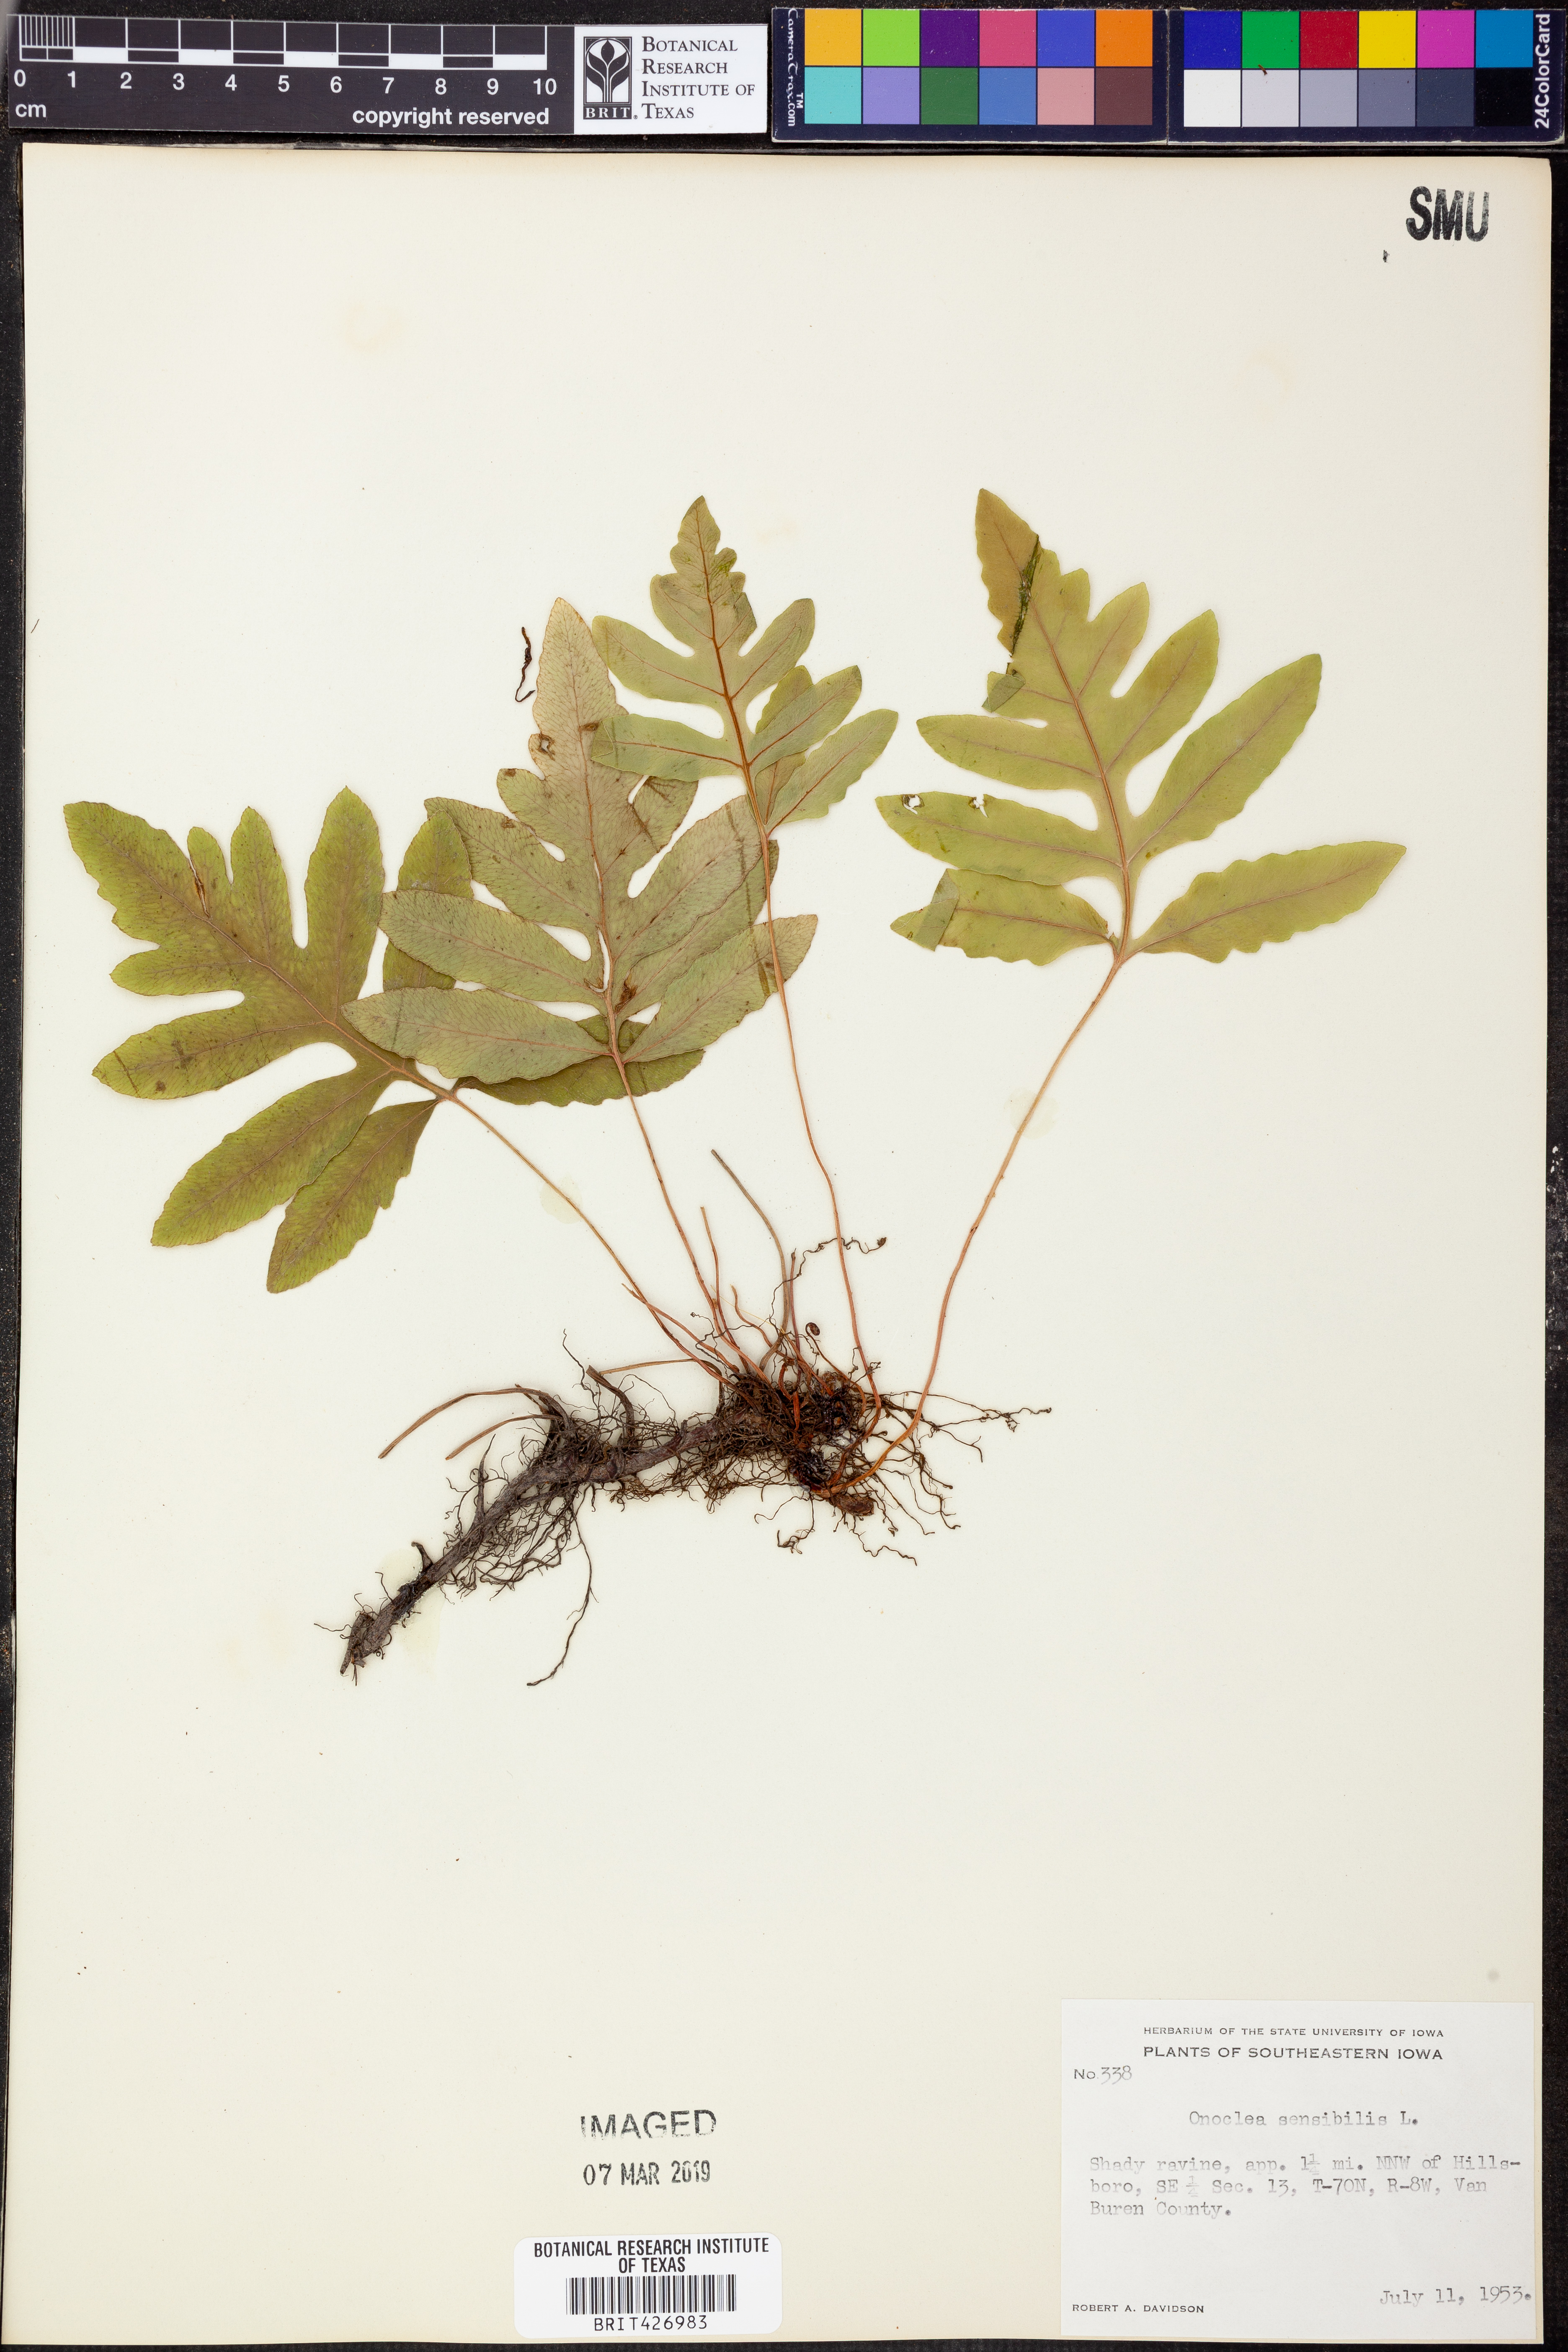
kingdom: Plantae
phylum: Tracheophyta
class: Polypodiopsida
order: Polypodiales
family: Onocleaceae
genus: Onoclea
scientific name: Onoclea sensibilis
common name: Sensitive fern
